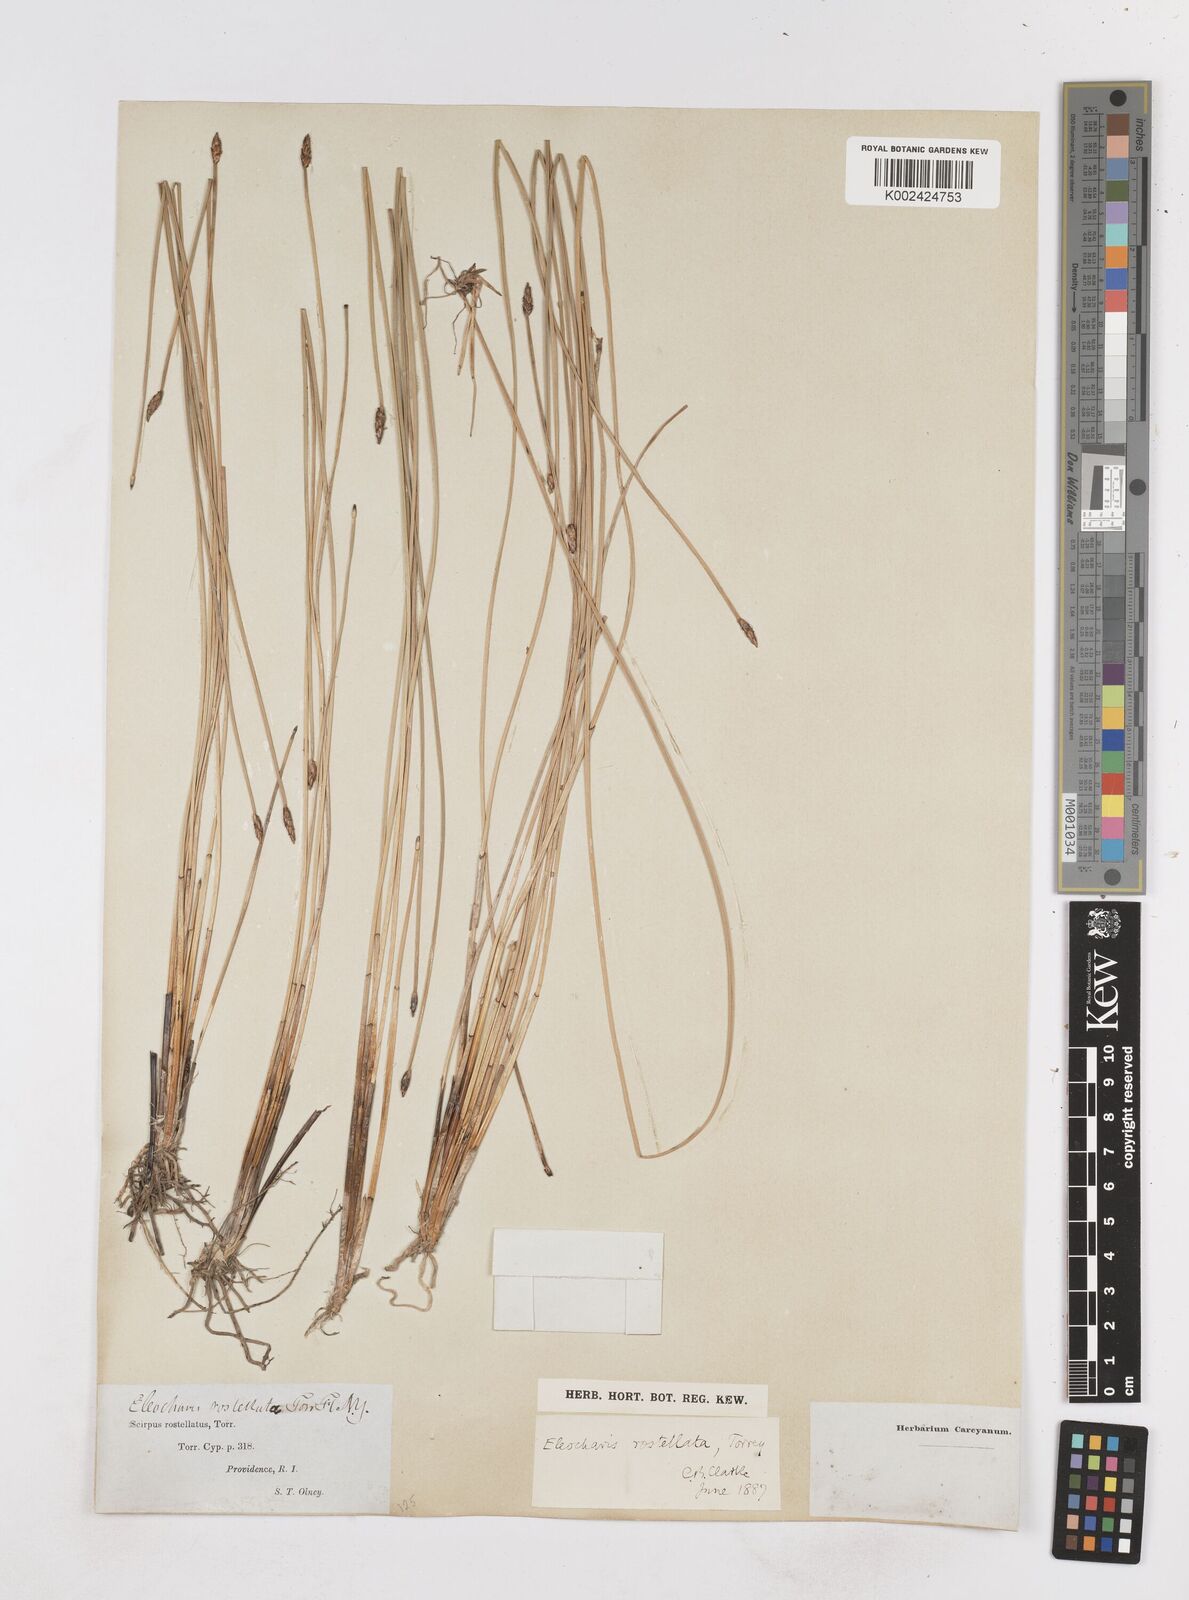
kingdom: Plantae
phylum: Tracheophyta
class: Liliopsida
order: Poales
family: Cyperaceae
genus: Eleocharis
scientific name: Eleocharis rostellata
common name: Walking sedge
